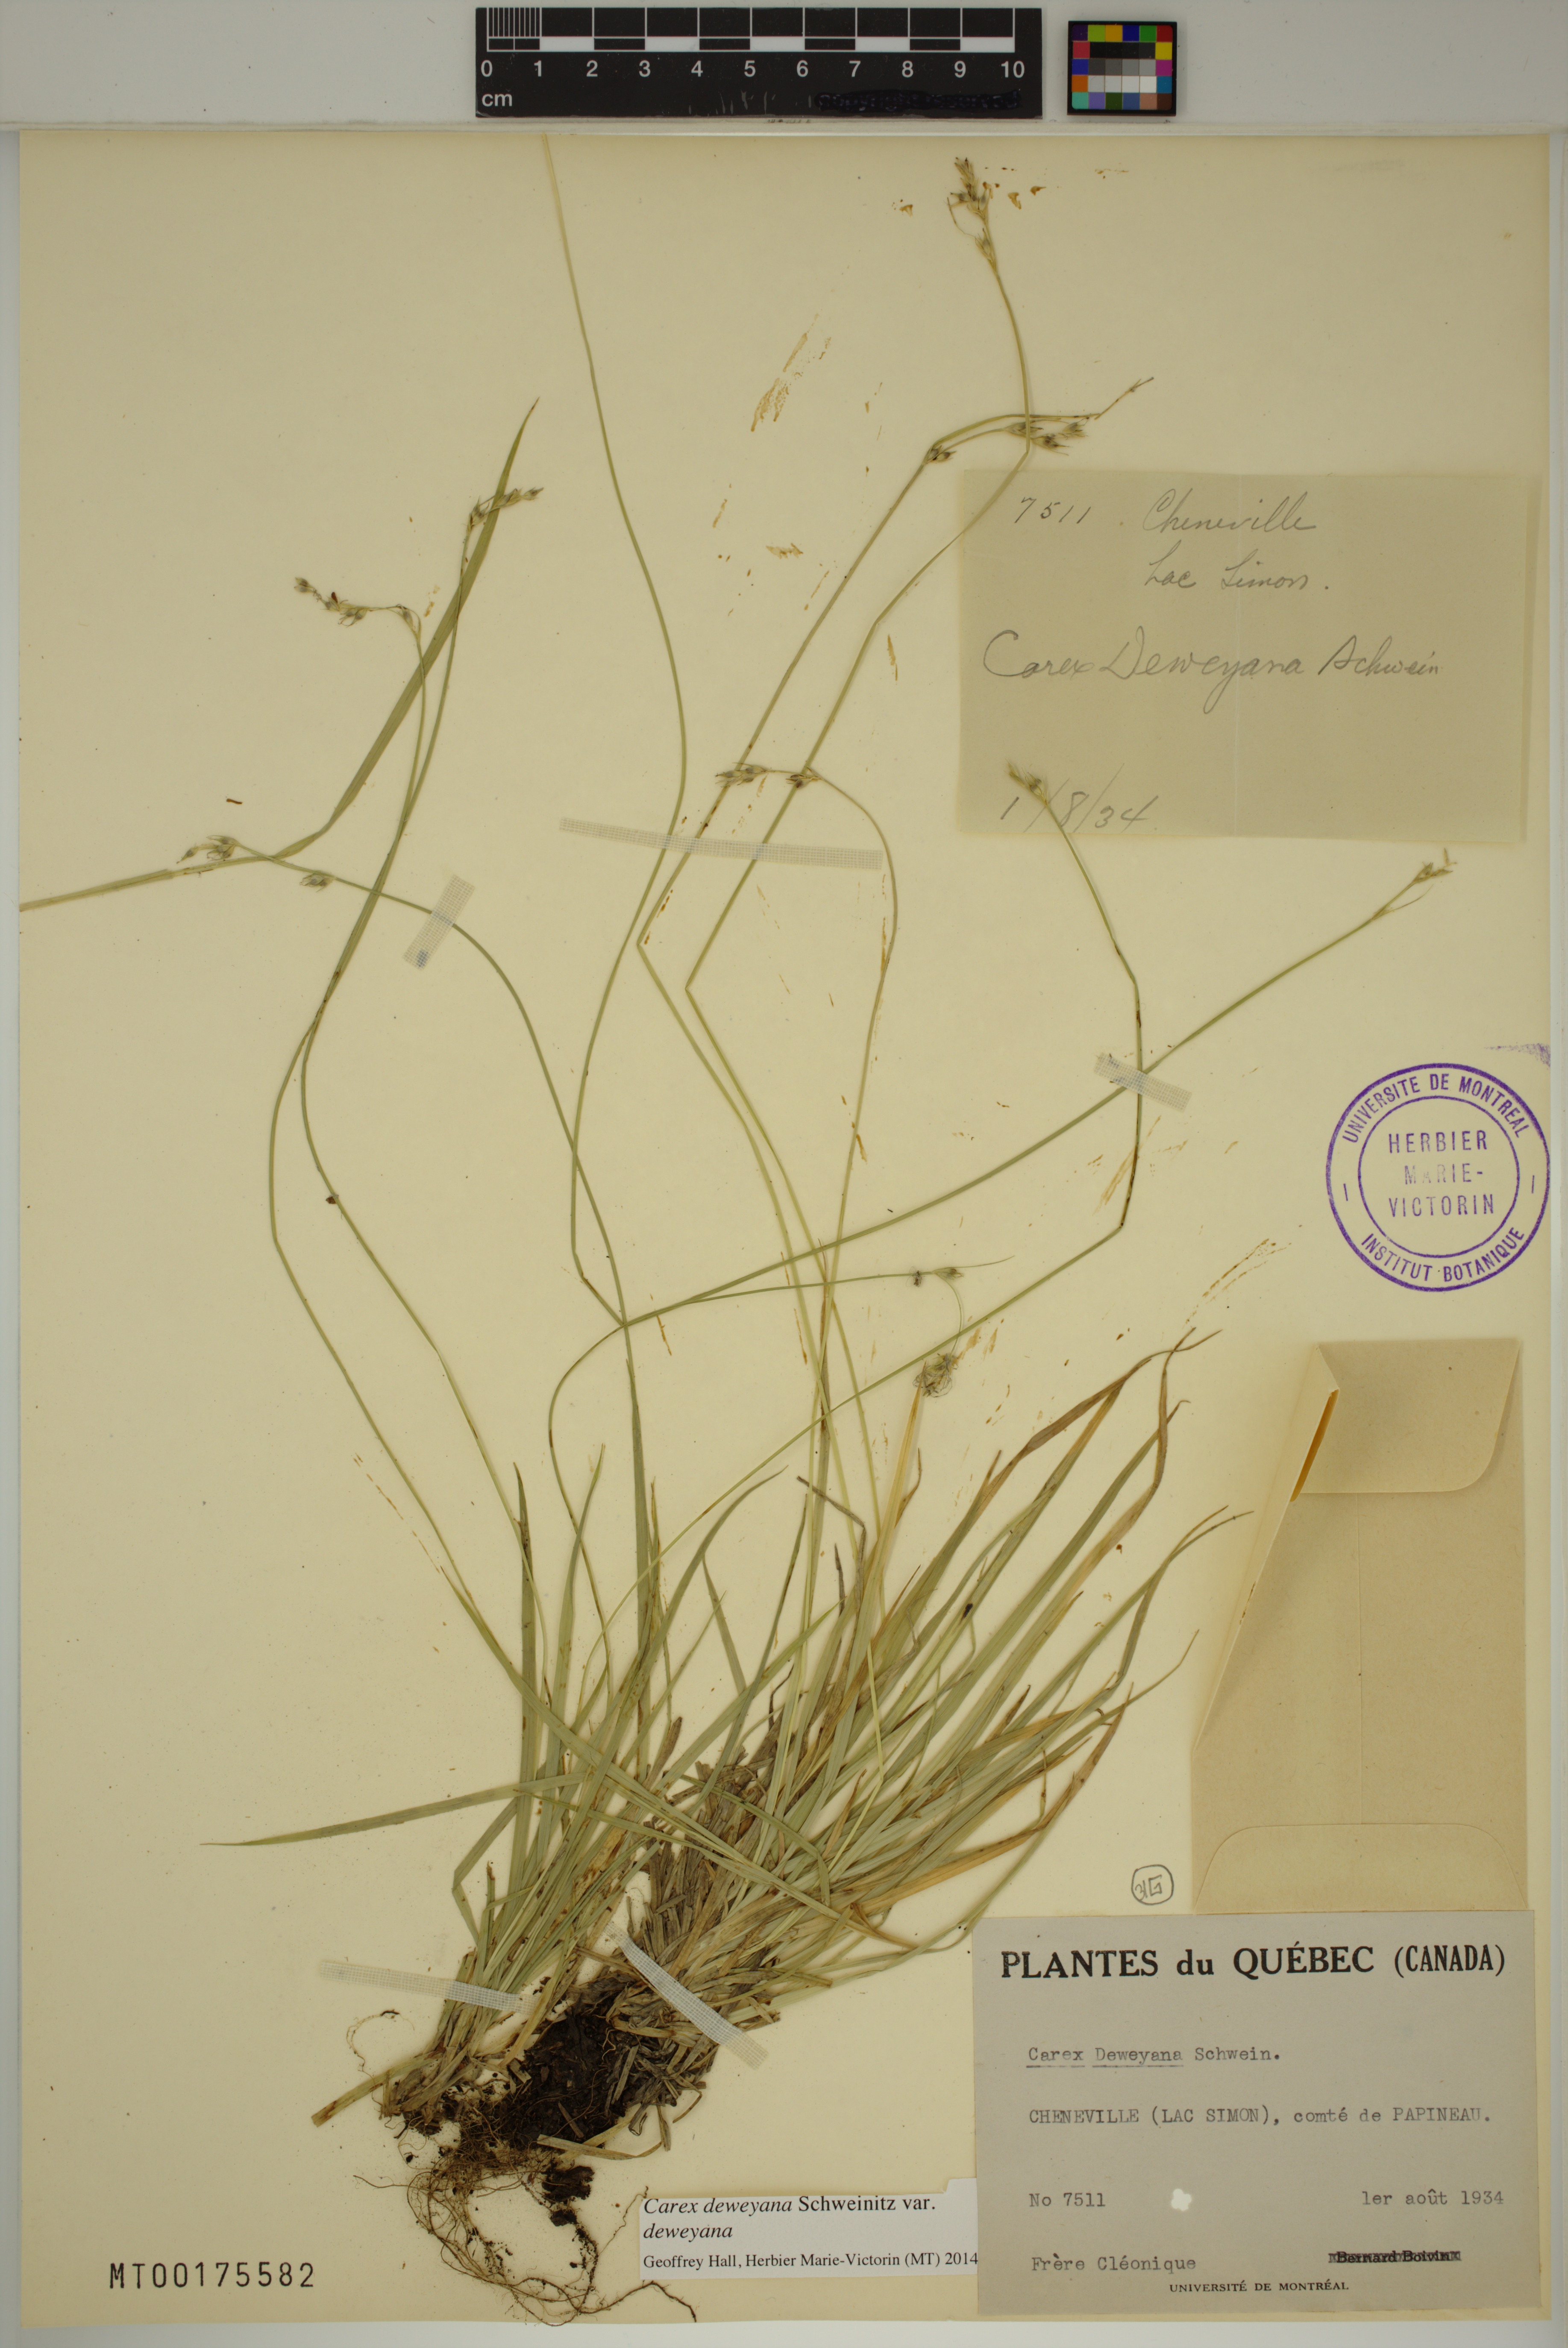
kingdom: Plantae
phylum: Tracheophyta
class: Liliopsida
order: Poales
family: Cyperaceae
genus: Carex
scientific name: Carex deweyana
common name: Dewey's sedge
